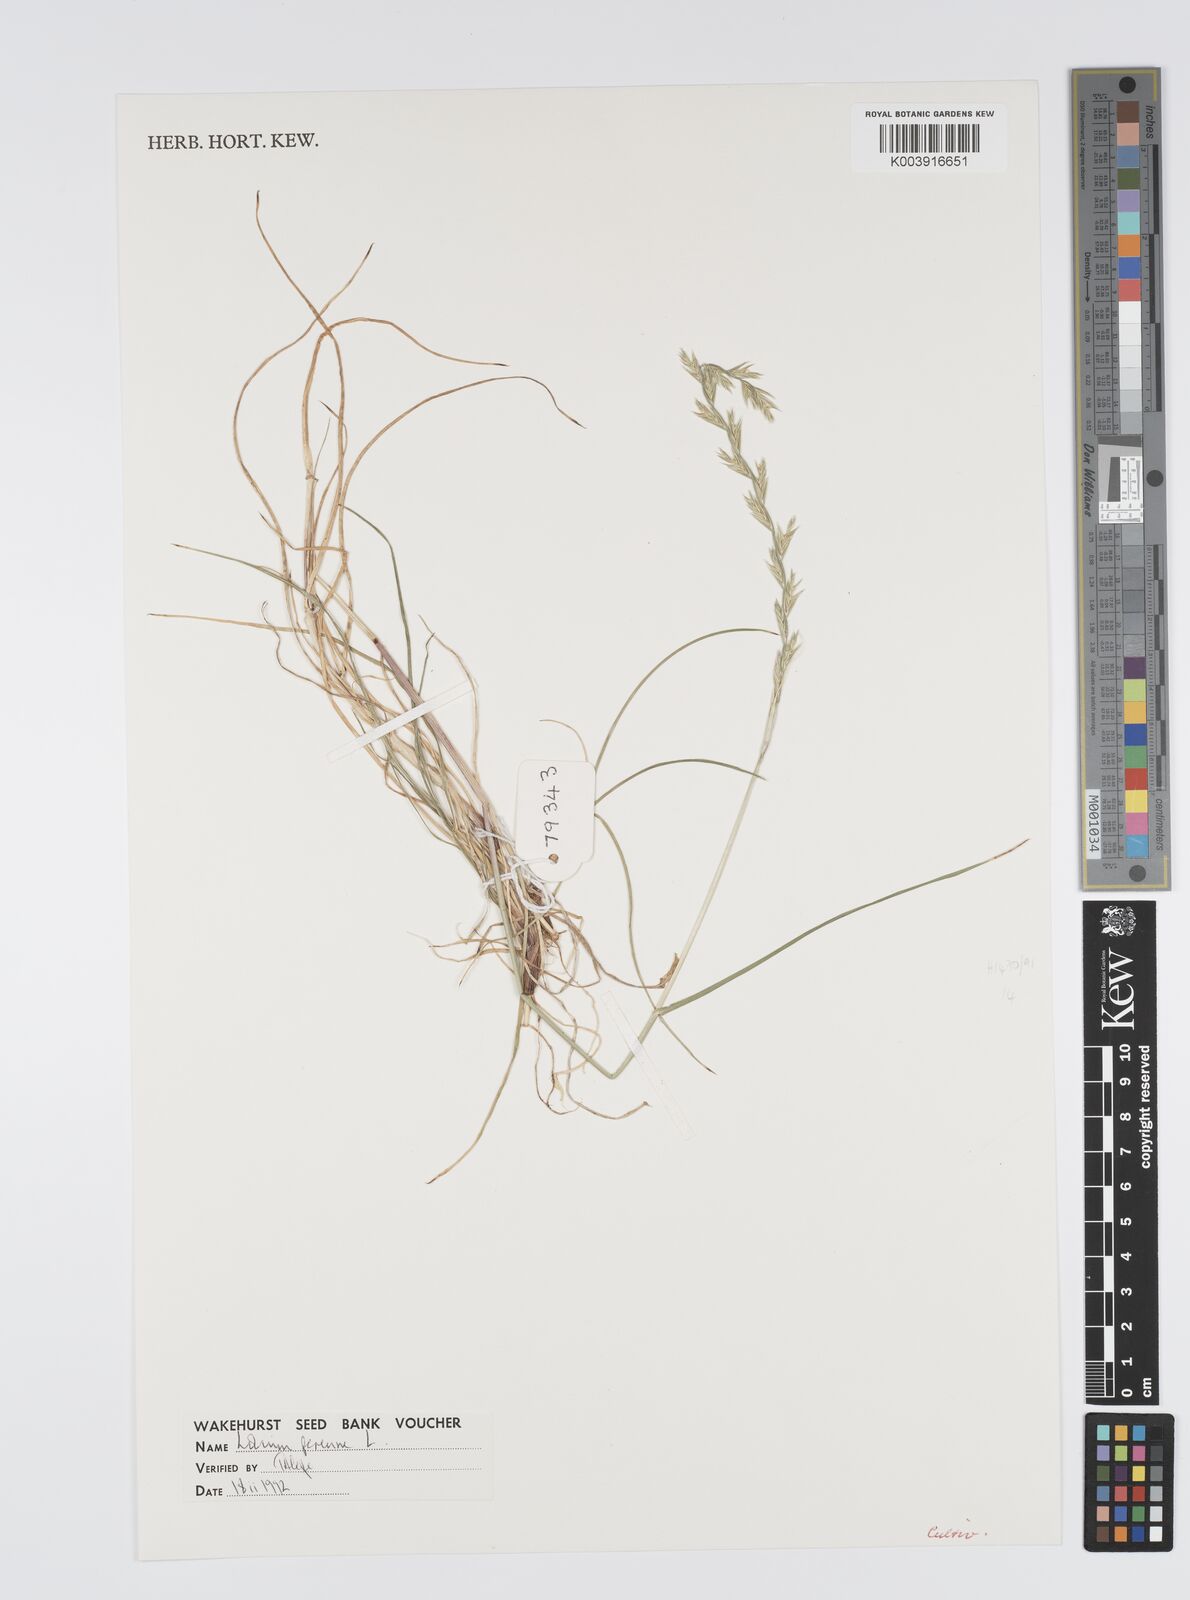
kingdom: Plantae
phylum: Tracheophyta
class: Liliopsida
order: Poales
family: Poaceae
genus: Lolium
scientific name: Lolium perenne
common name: Perennial ryegrass
